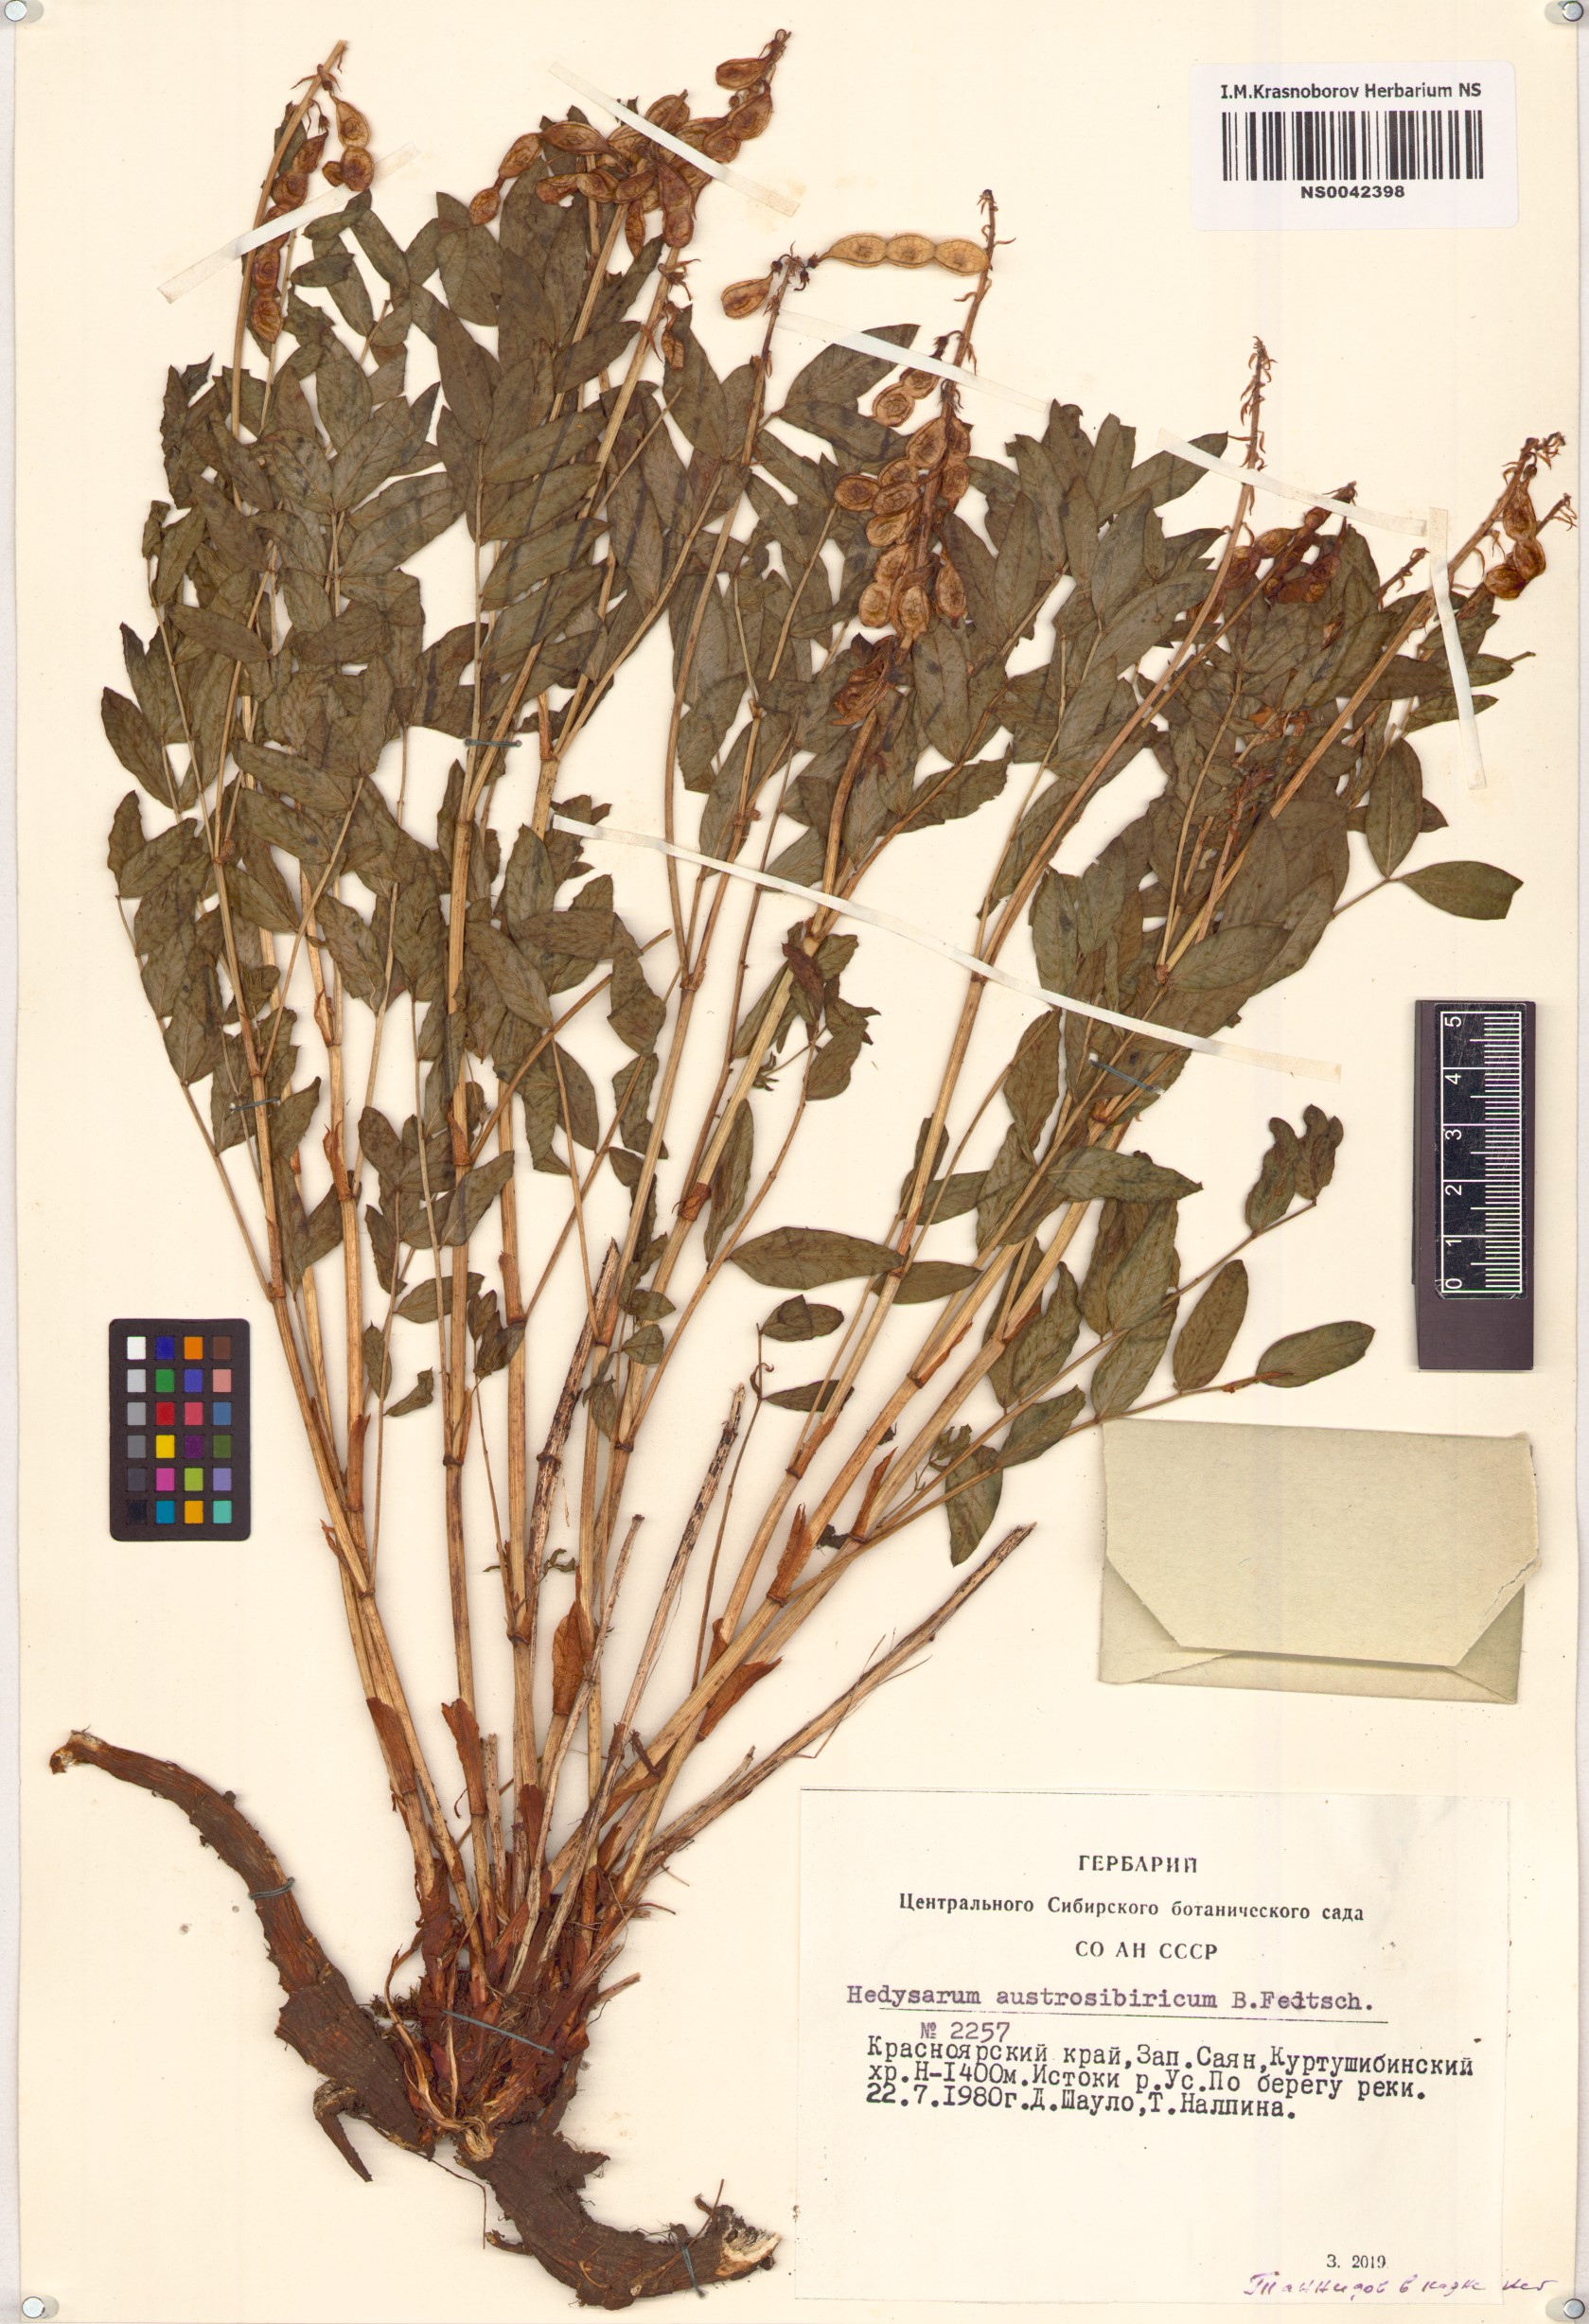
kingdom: Plantae
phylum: Tracheophyta
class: Magnoliopsida
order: Fabales
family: Fabaceae
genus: Hedysarum
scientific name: Hedysarum neglectum
